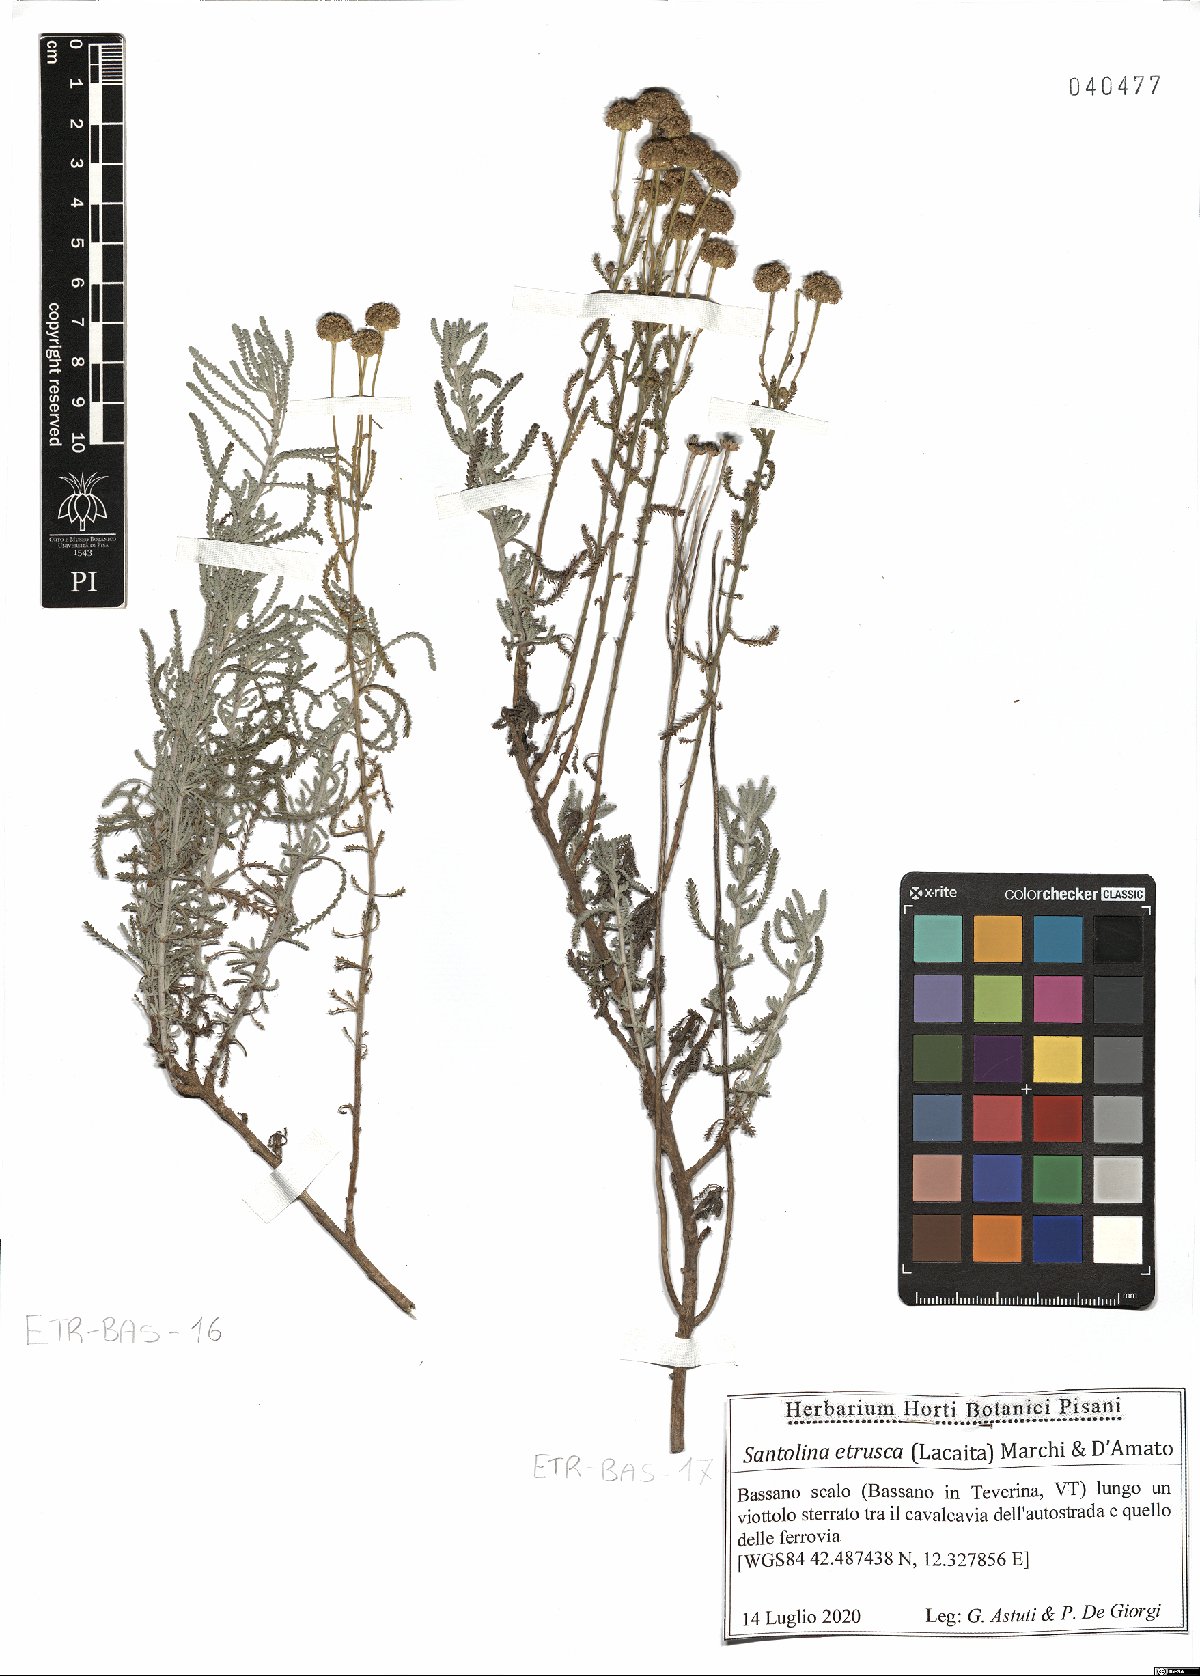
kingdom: Plantae
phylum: Tracheophyta
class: Magnoliopsida
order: Asterales
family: Asteraceae
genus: Santolina
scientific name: Santolina etrusca
